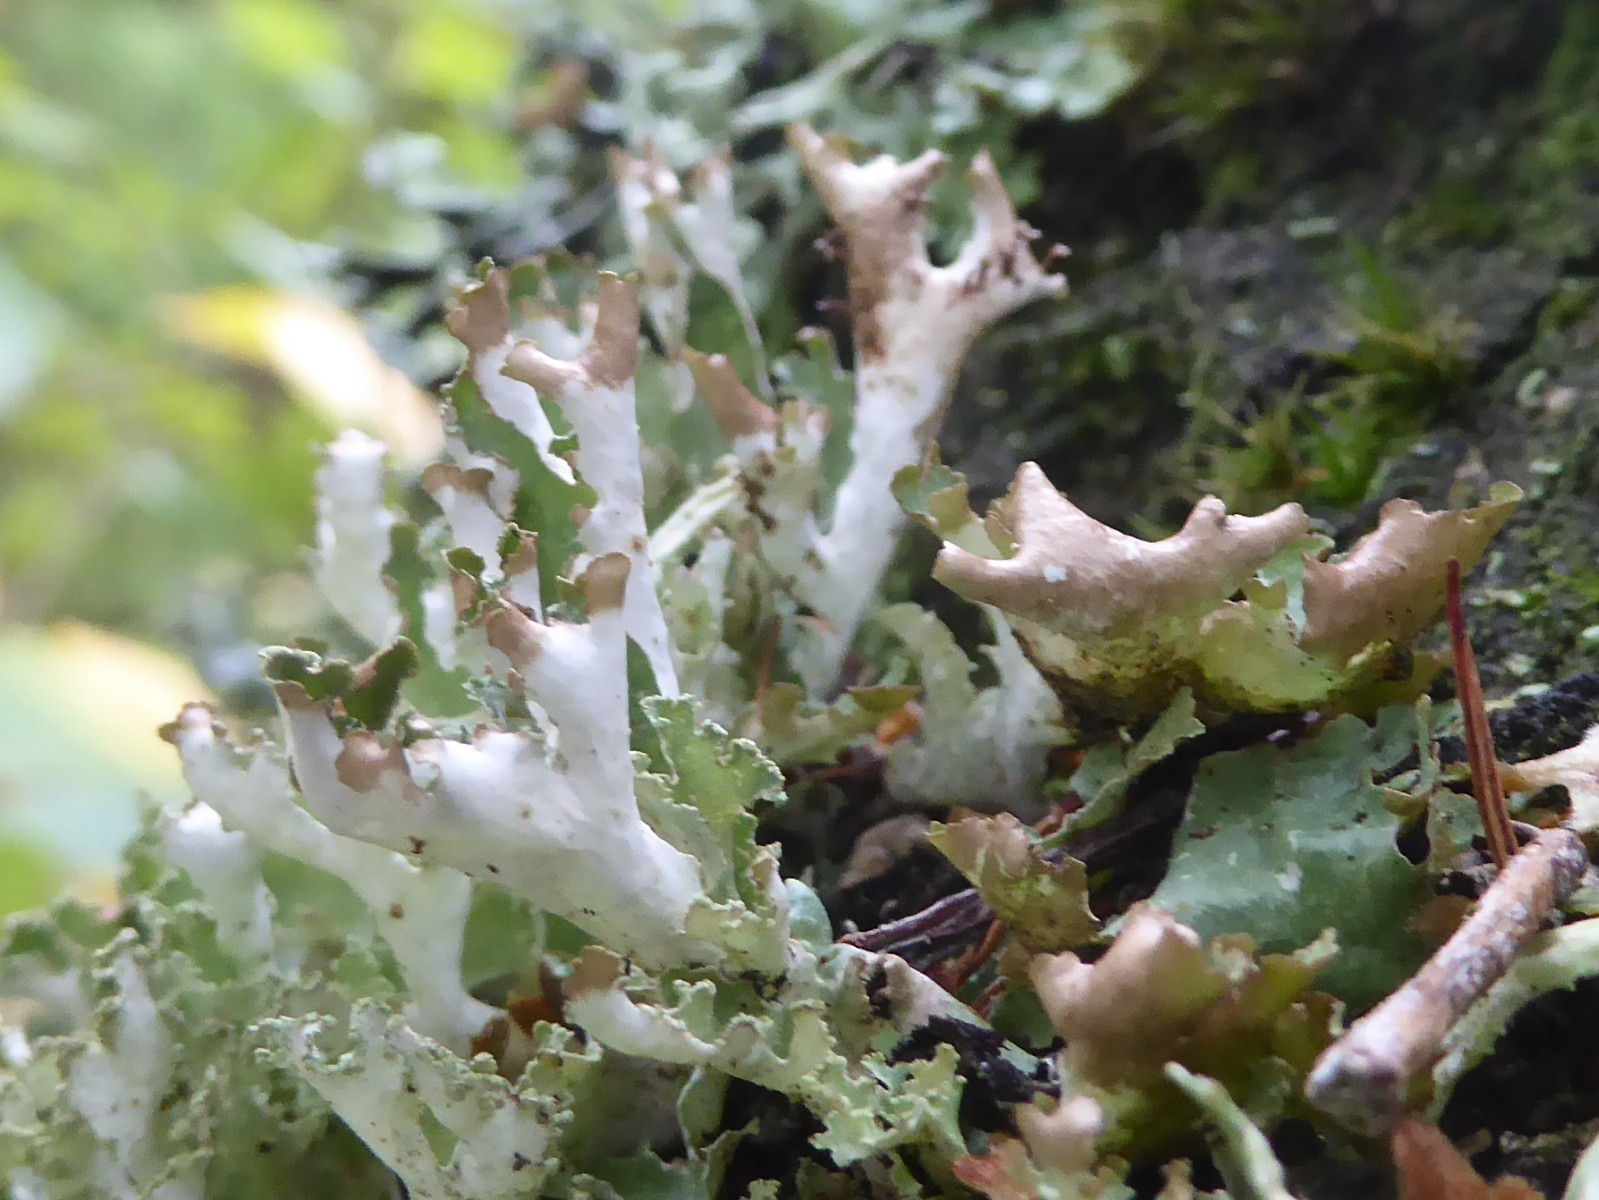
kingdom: Fungi
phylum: Ascomycota
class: Lecanoromycetes
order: Lecanorales
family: Parmeliaceae
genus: Platismatia
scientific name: Platismatia glauca
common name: blågrå papirlav
